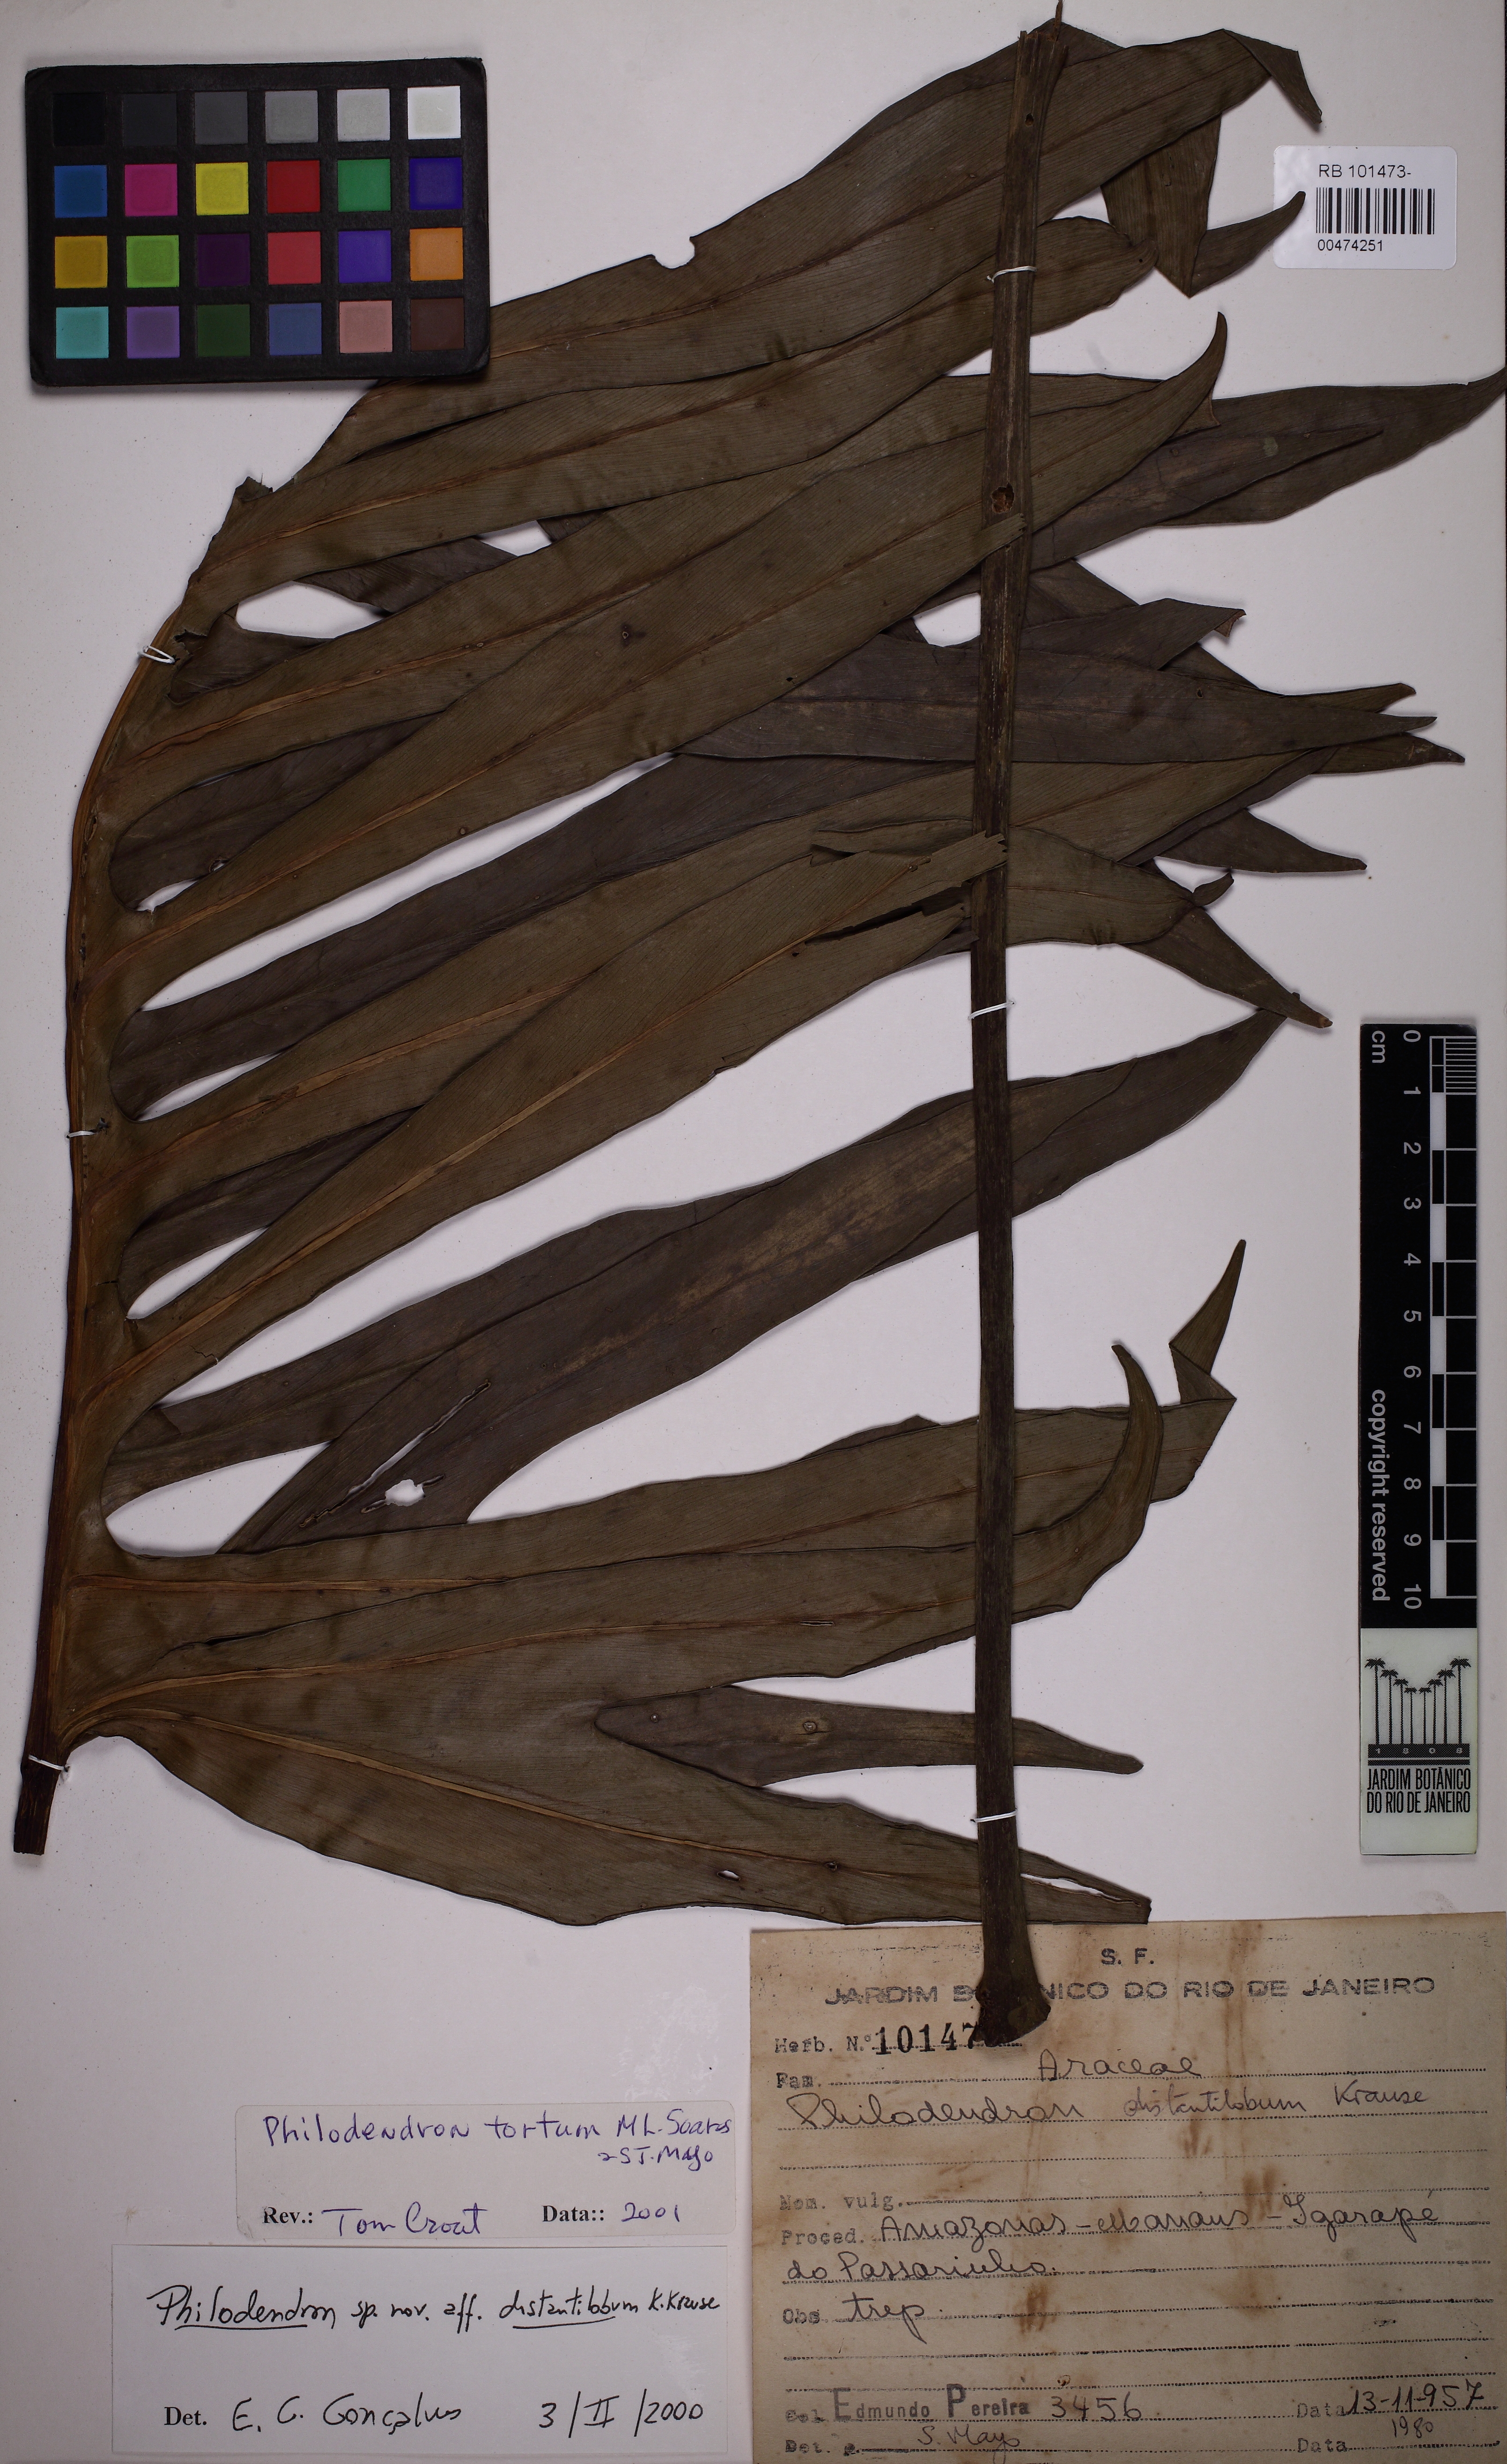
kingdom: Plantae
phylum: Tracheophyta
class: Liliopsida
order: Alismatales
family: Araceae
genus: Philodendron
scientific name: Philodendron tortum
